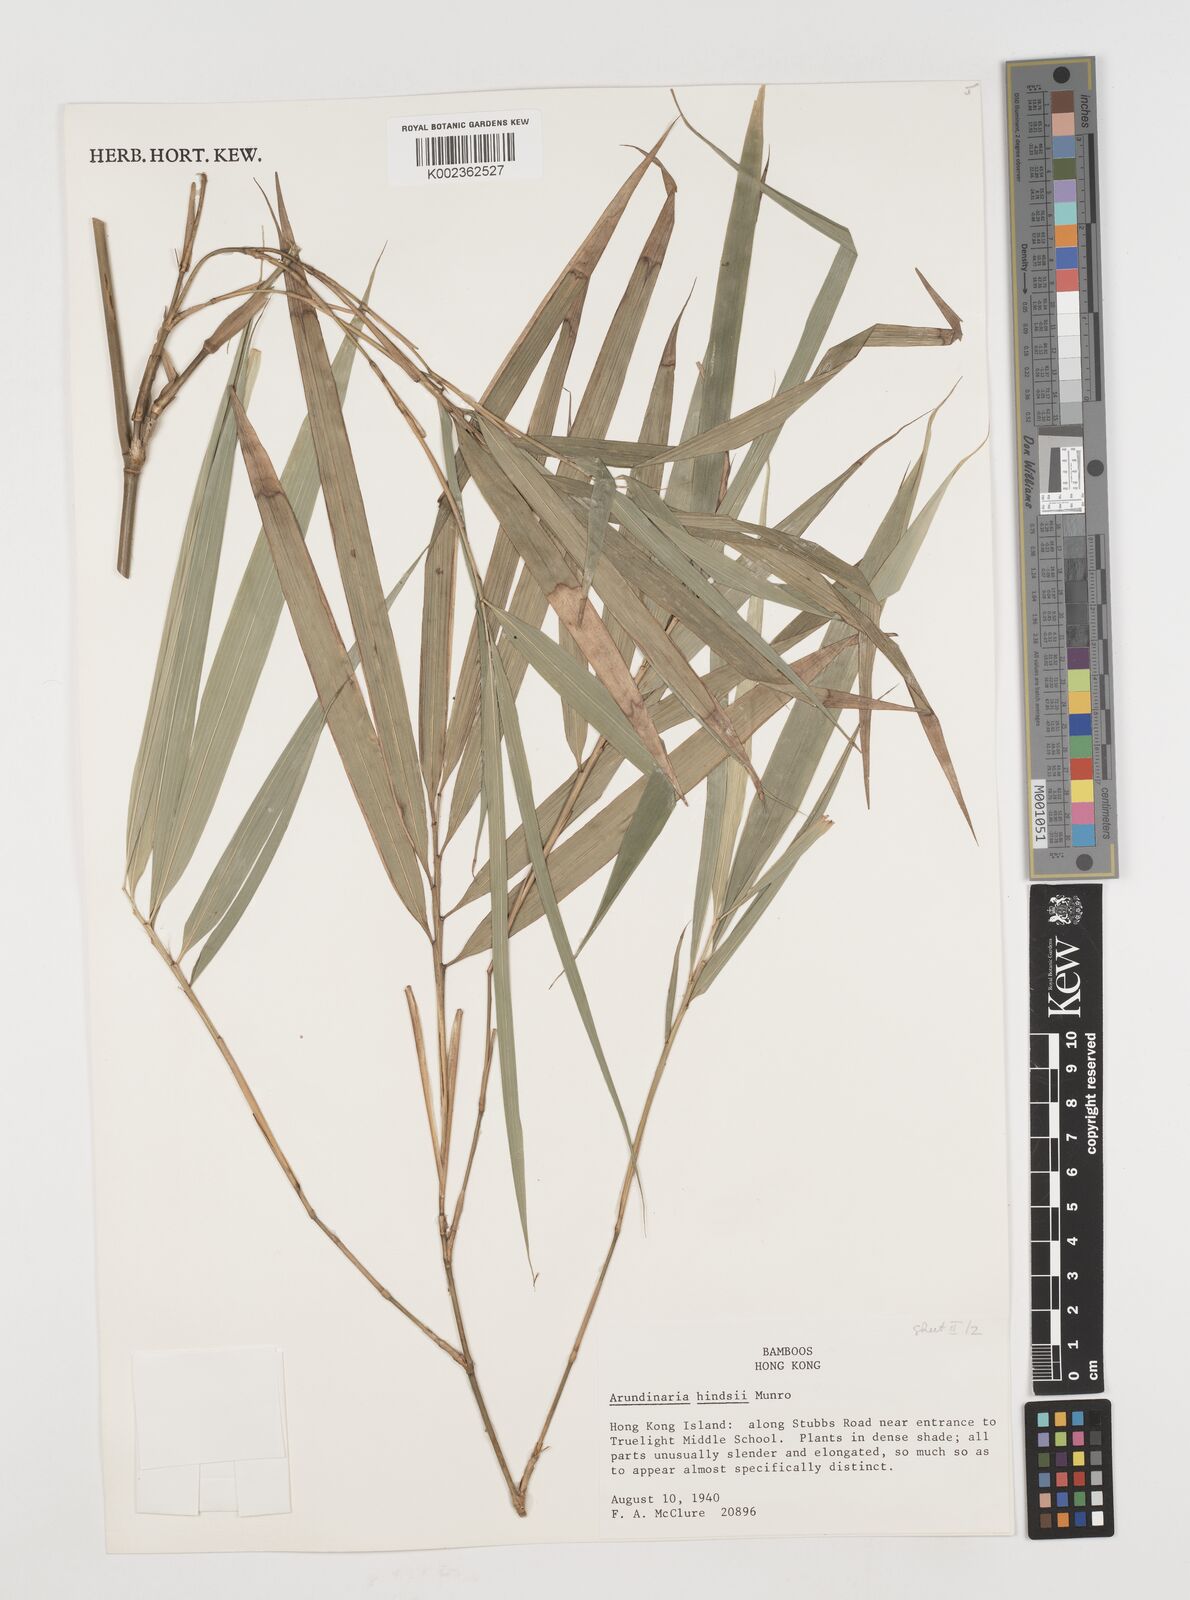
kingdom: Plantae
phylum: Tracheophyta
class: Liliopsida
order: Poales
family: Poaceae
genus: Pseudosasa
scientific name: Pseudosasa hindsii
